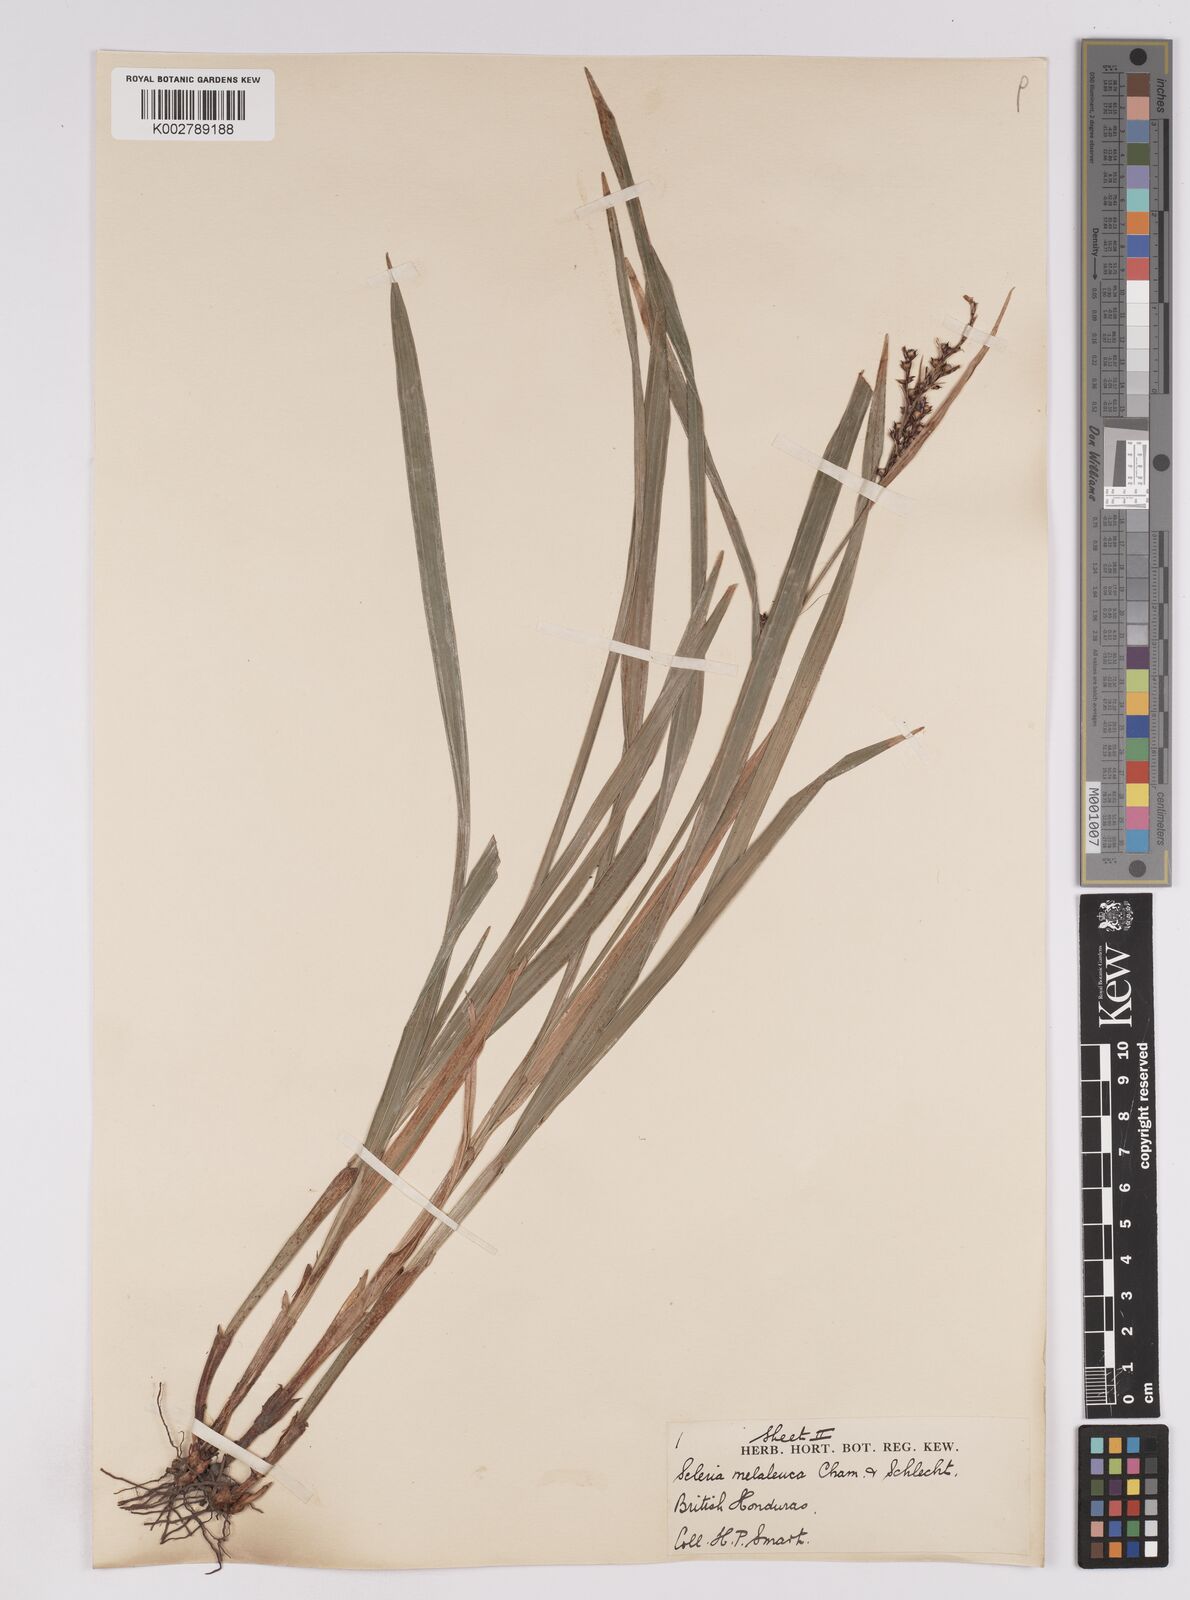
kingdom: Plantae
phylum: Tracheophyta
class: Liliopsida
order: Poales
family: Cyperaceae
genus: Scleria
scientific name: Scleria gaertneri
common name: Cortadera blanca
